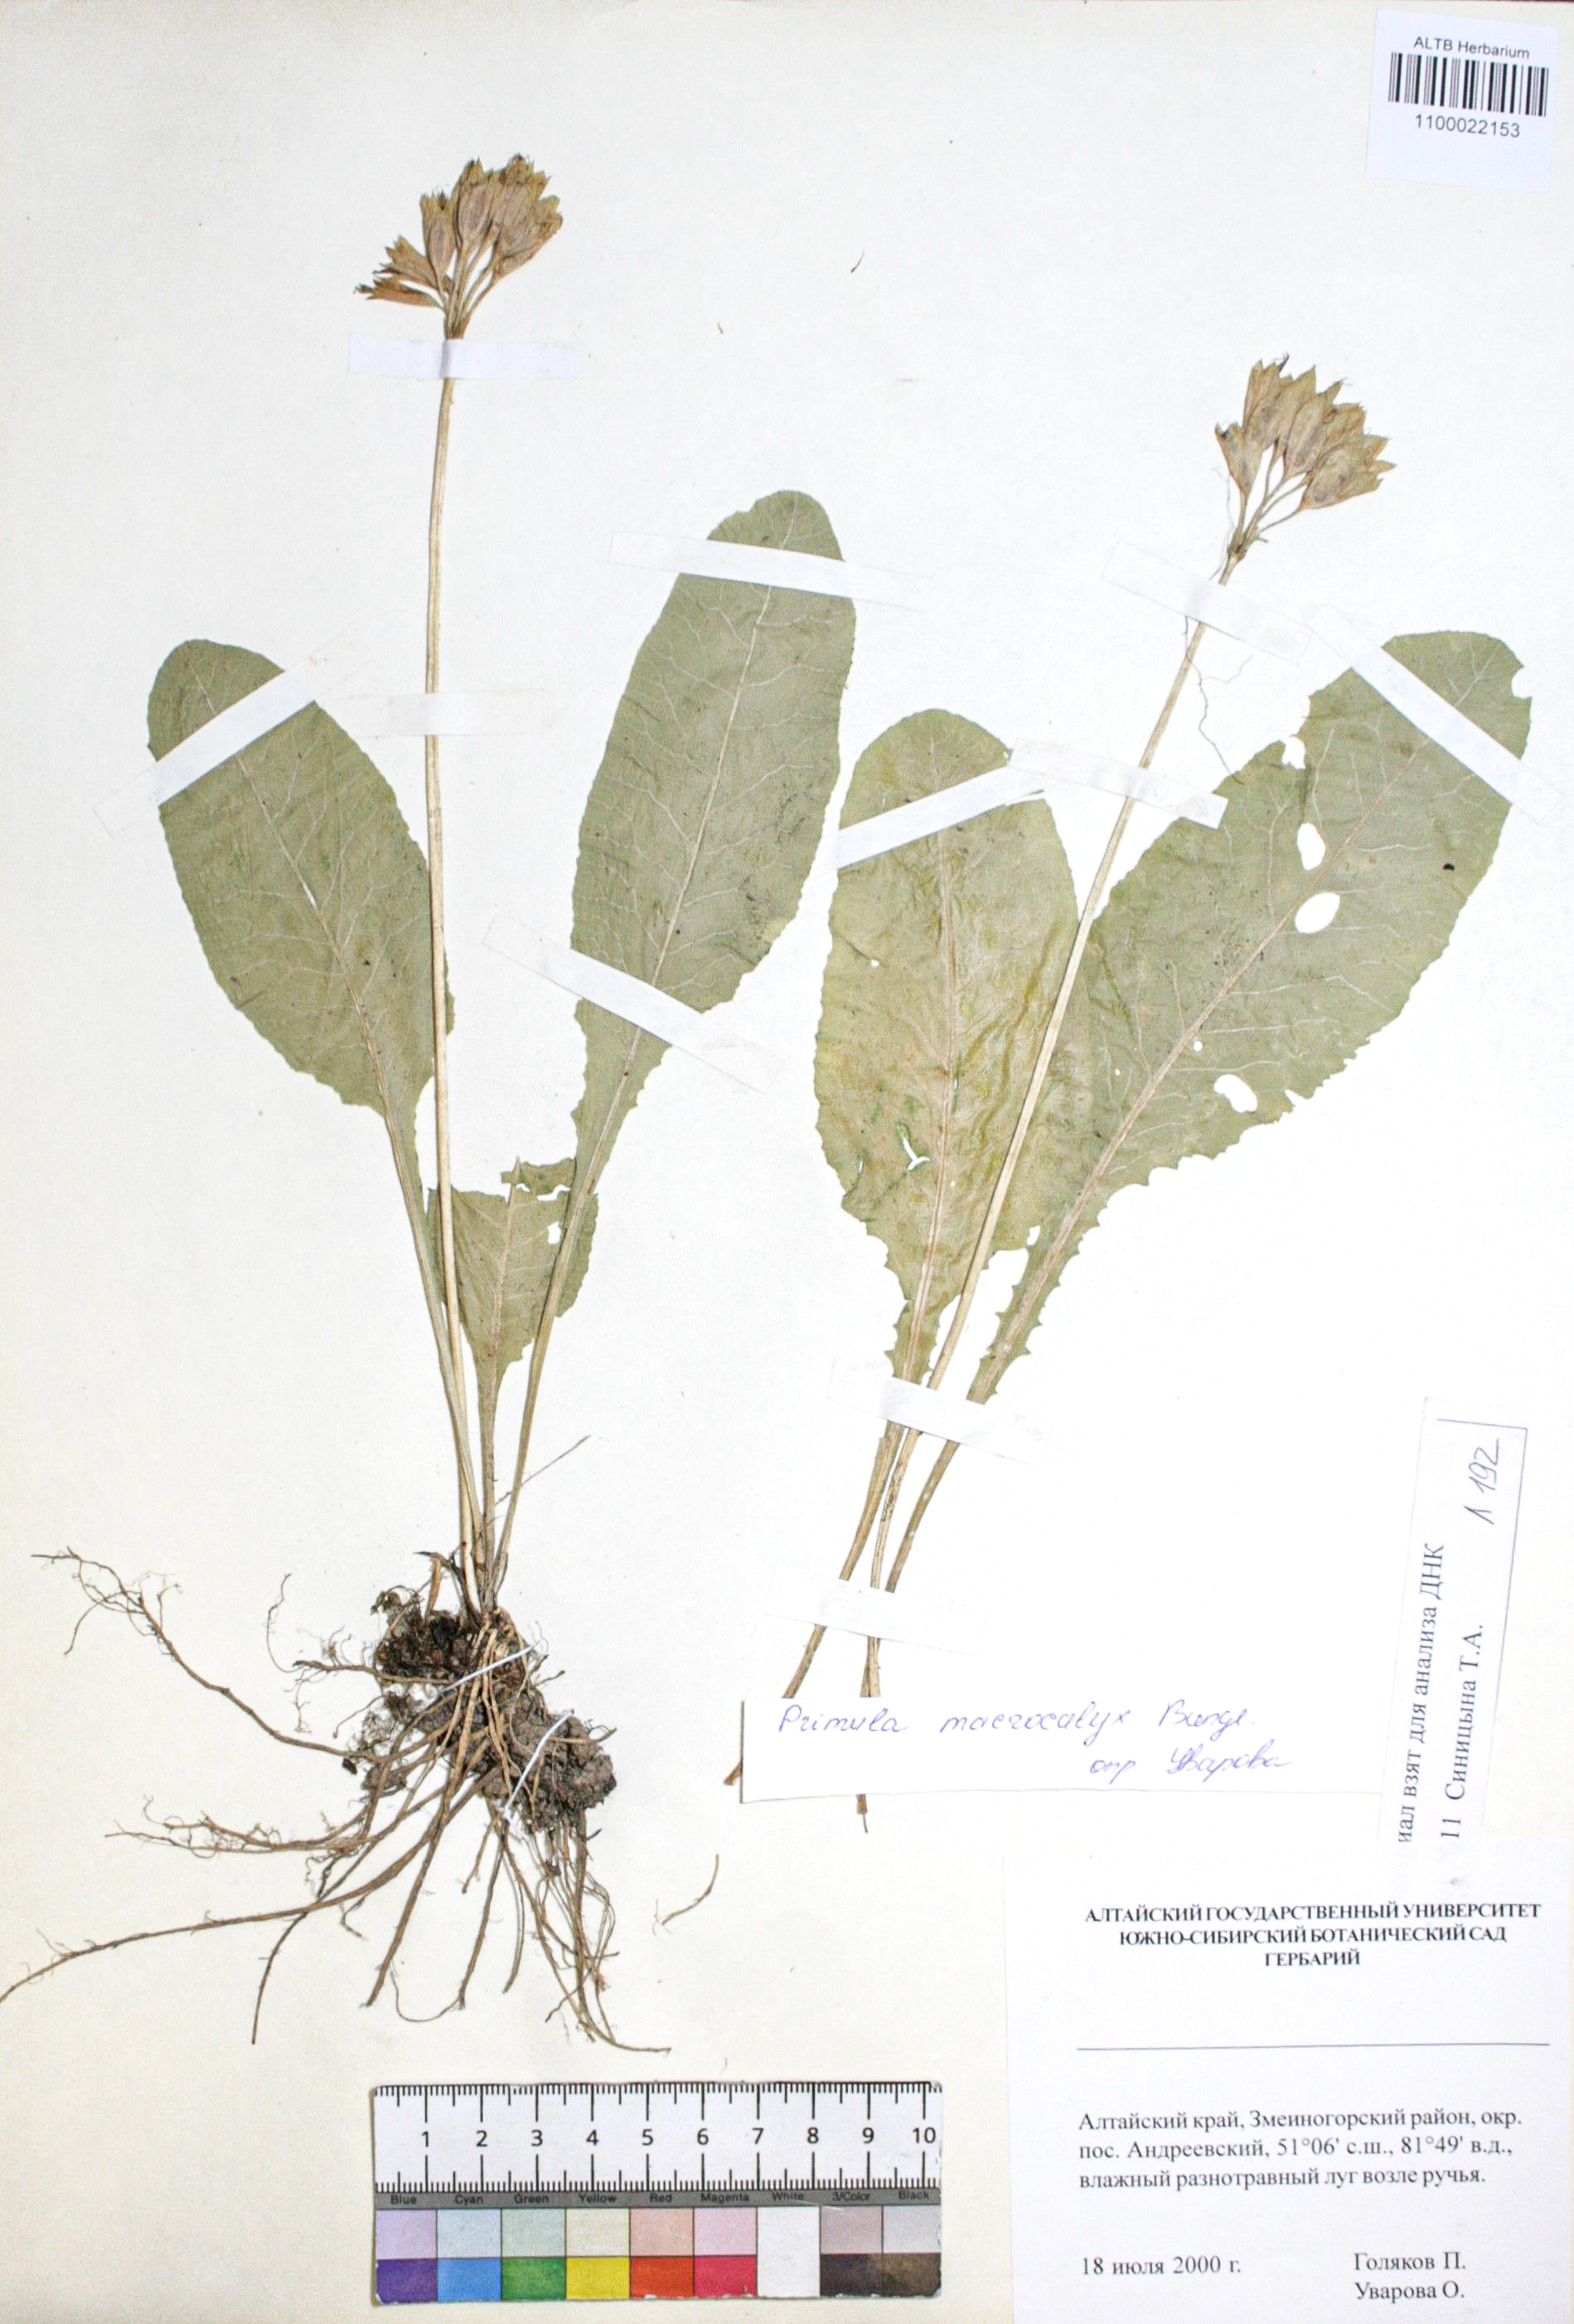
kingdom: Plantae
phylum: Tracheophyta
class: Magnoliopsida
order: Ericales
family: Primulaceae
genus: Primula
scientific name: Primula veris
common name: Cowslip
